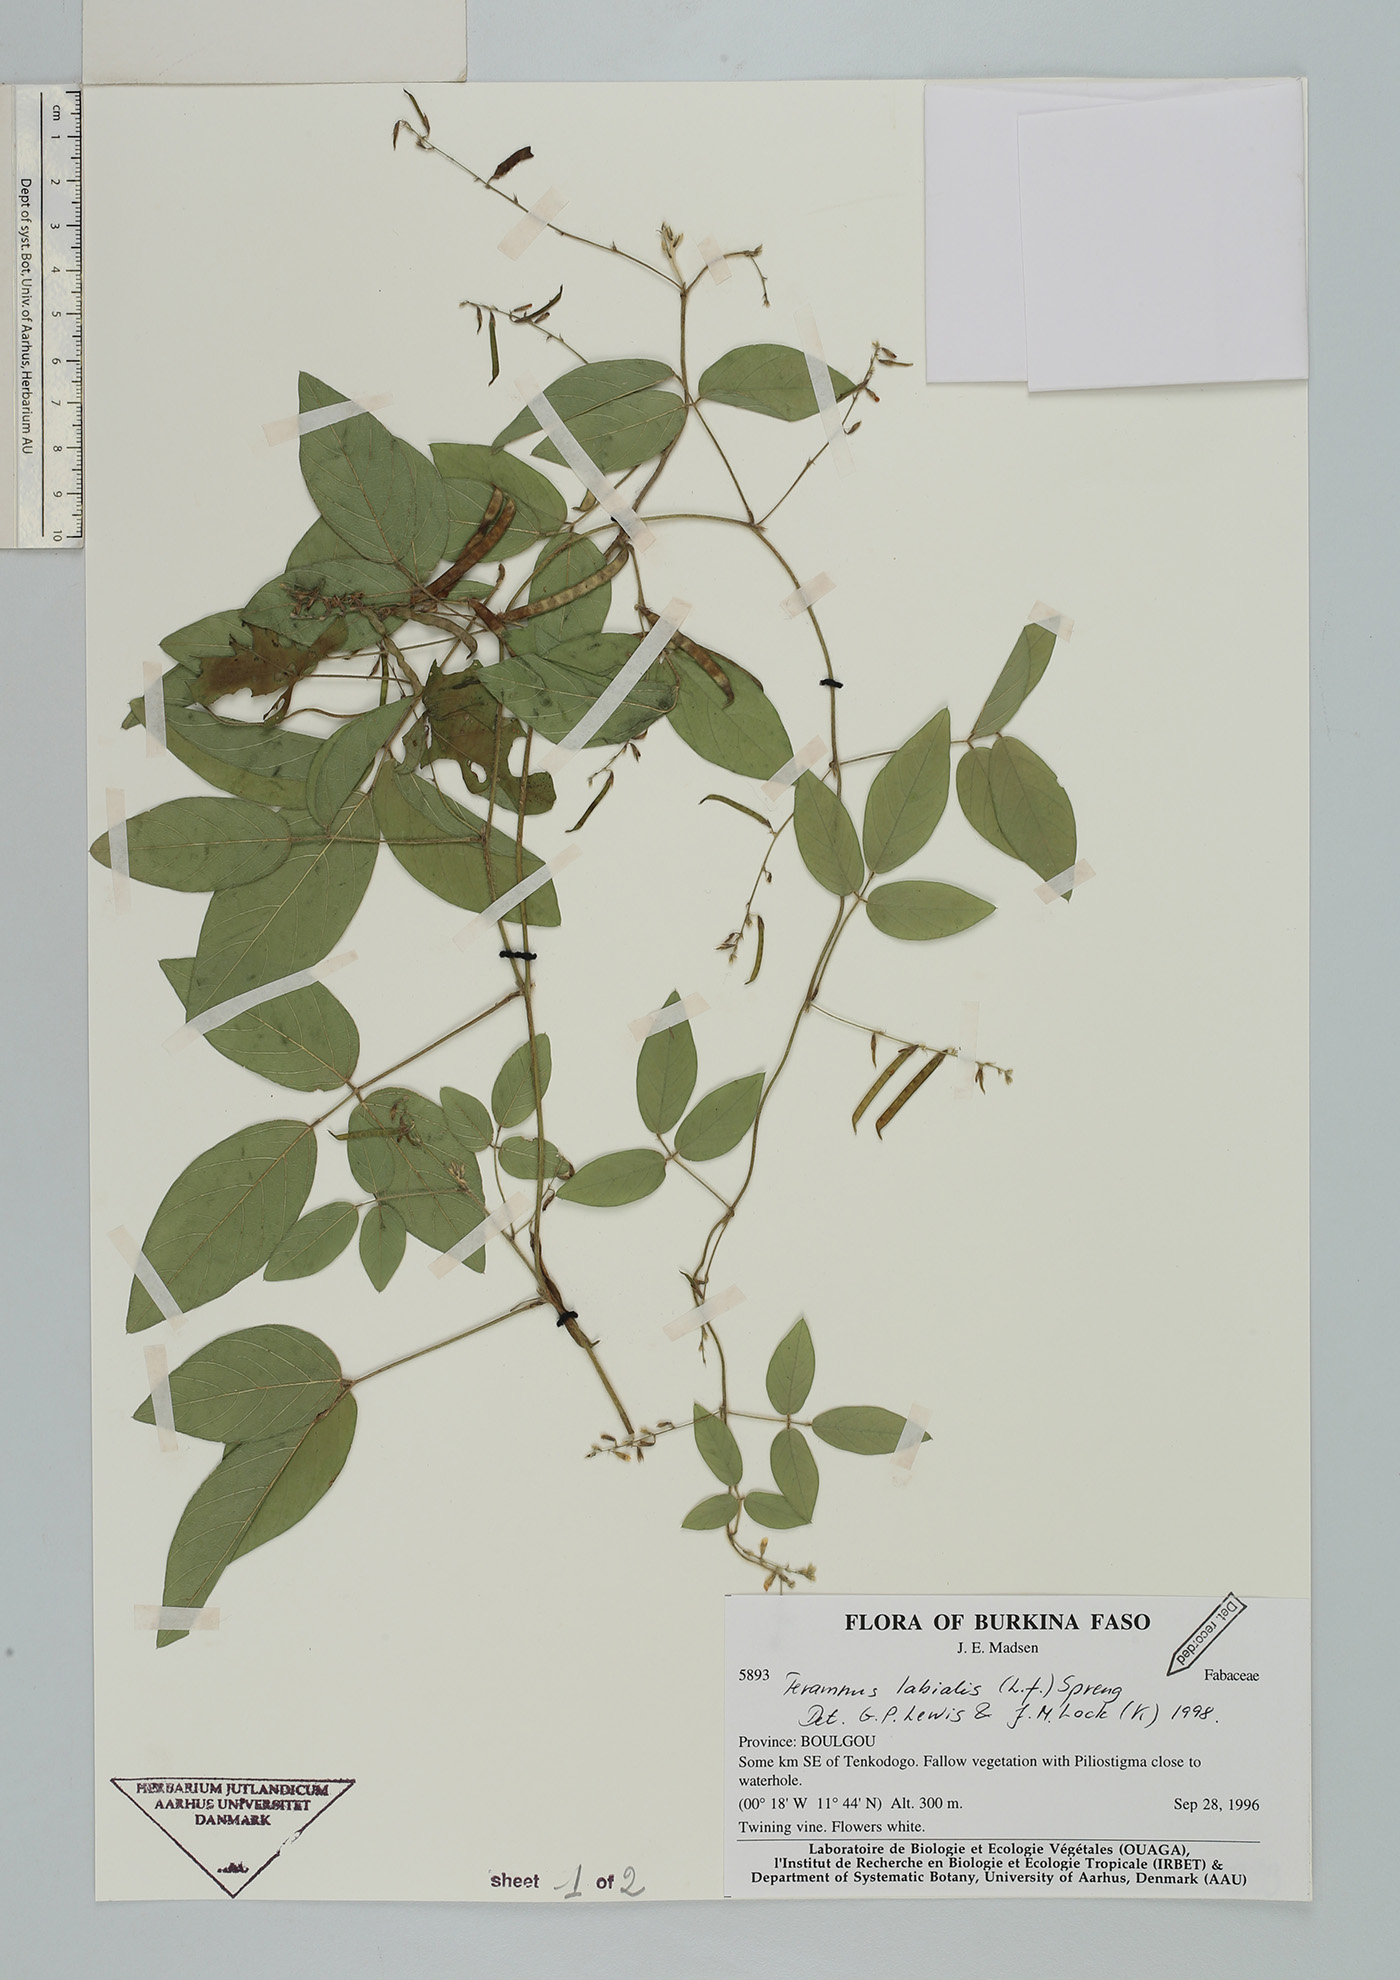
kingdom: Plantae
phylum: Tracheophyta
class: Magnoliopsida
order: Fabales
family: Fabaceae
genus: Teramnus
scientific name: Teramnus labialis
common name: Blue wiss
